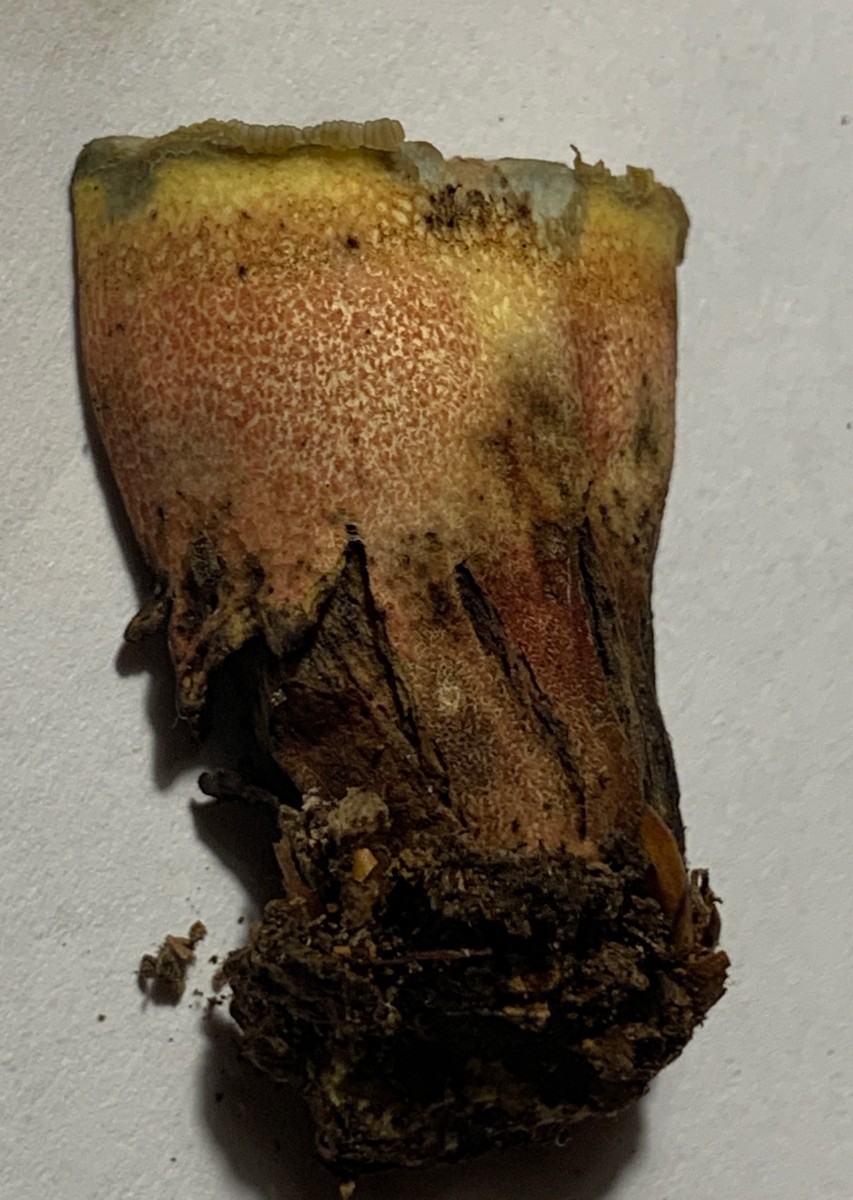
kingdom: Fungi
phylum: Basidiomycota
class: Agaricomycetes
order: Boletales
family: Boletaceae
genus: Caloboletus
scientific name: Caloboletus calopus
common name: skønfodet rørhat
